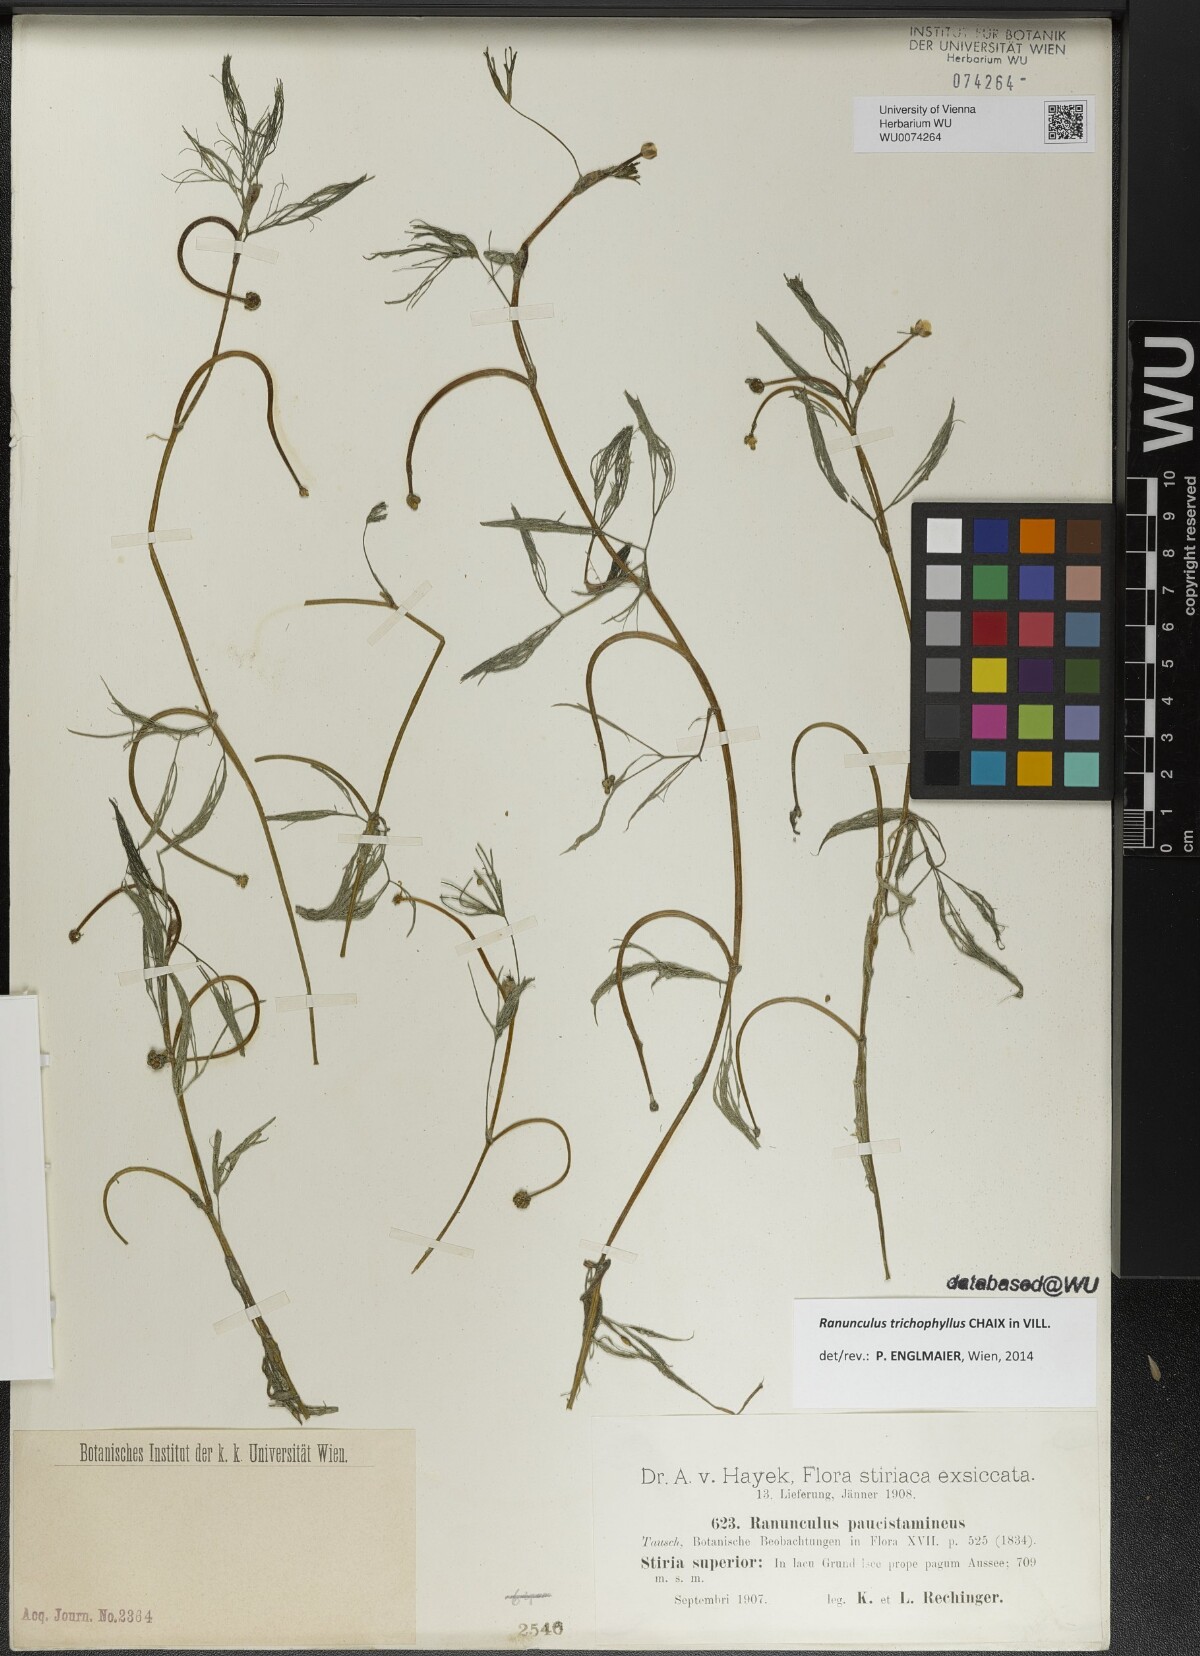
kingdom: Plantae
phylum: Tracheophyta
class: Magnoliopsida
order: Ranunculales
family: Ranunculaceae
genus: Ranunculus
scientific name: Ranunculus trichophyllus
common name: Thread-leaved water-crowfoot
